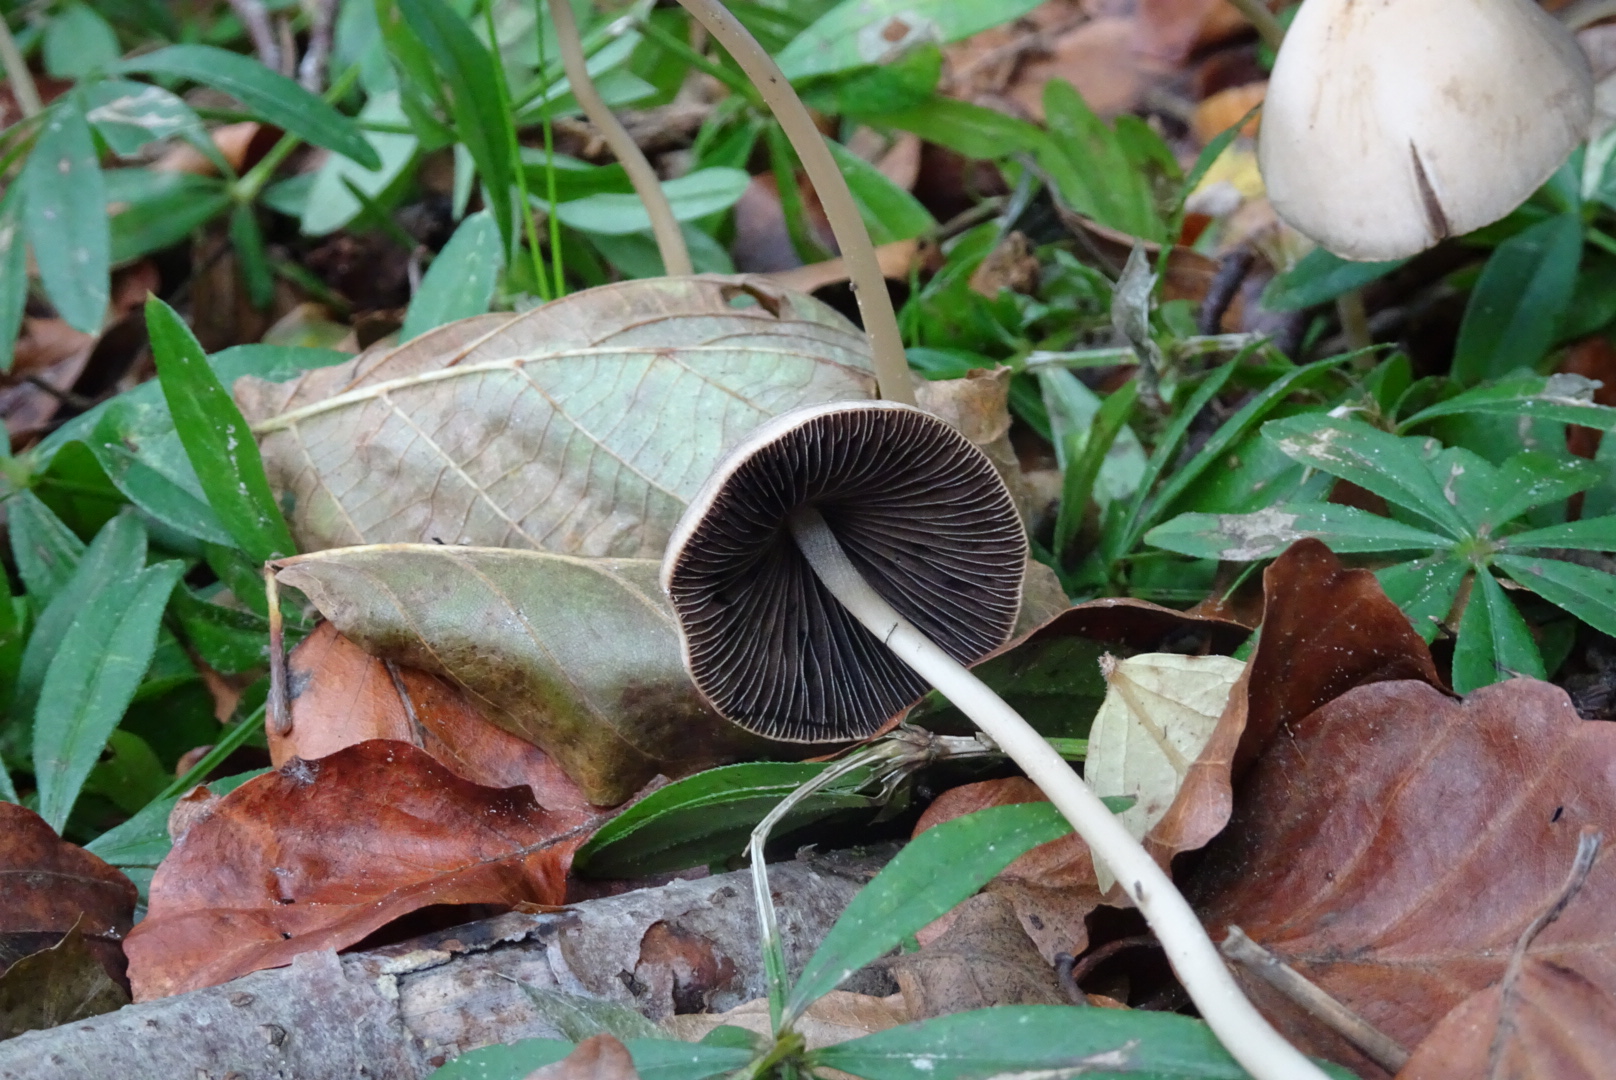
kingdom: Fungi
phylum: Basidiomycota
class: Agaricomycetes
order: Agaricales
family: Psathyrellaceae
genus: Parasola
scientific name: Parasola conopilea
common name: kegle-hjulhat
